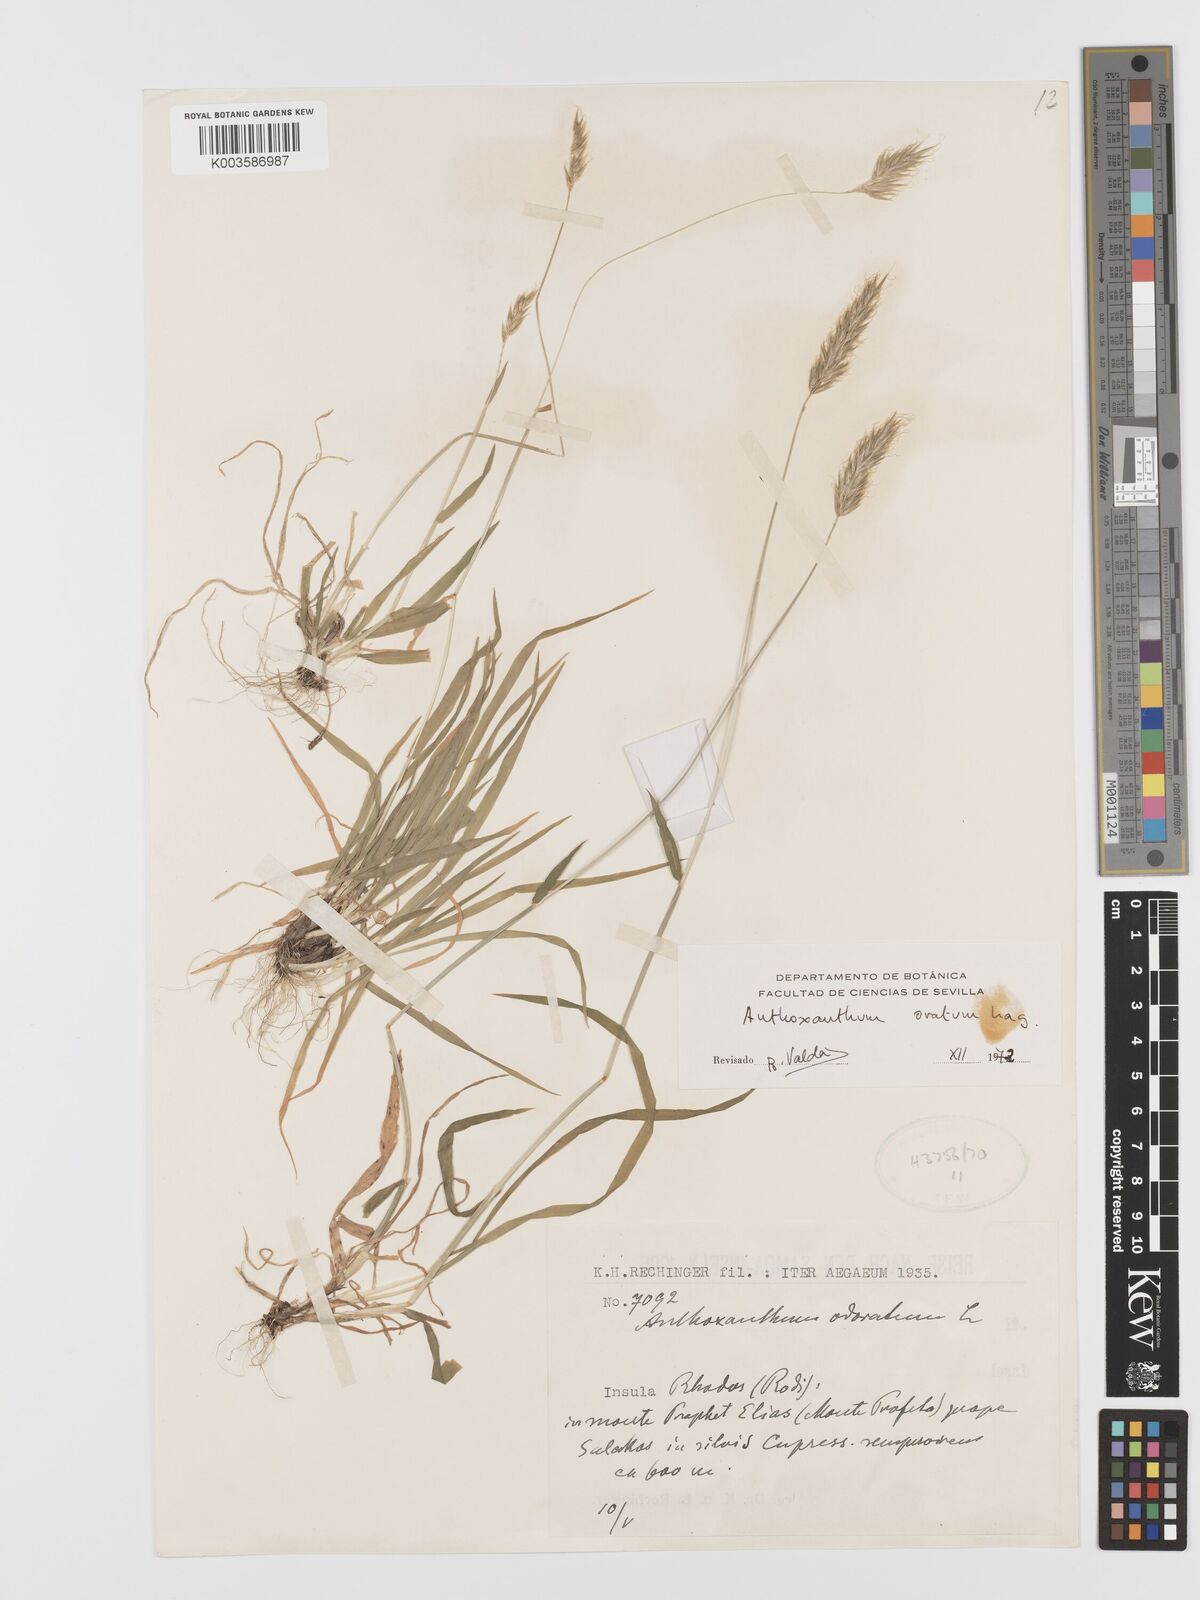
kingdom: Plantae
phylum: Tracheophyta
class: Liliopsida
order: Poales
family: Poaceae
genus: Anthoxanthum
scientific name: Anthoxanthum ovatum
